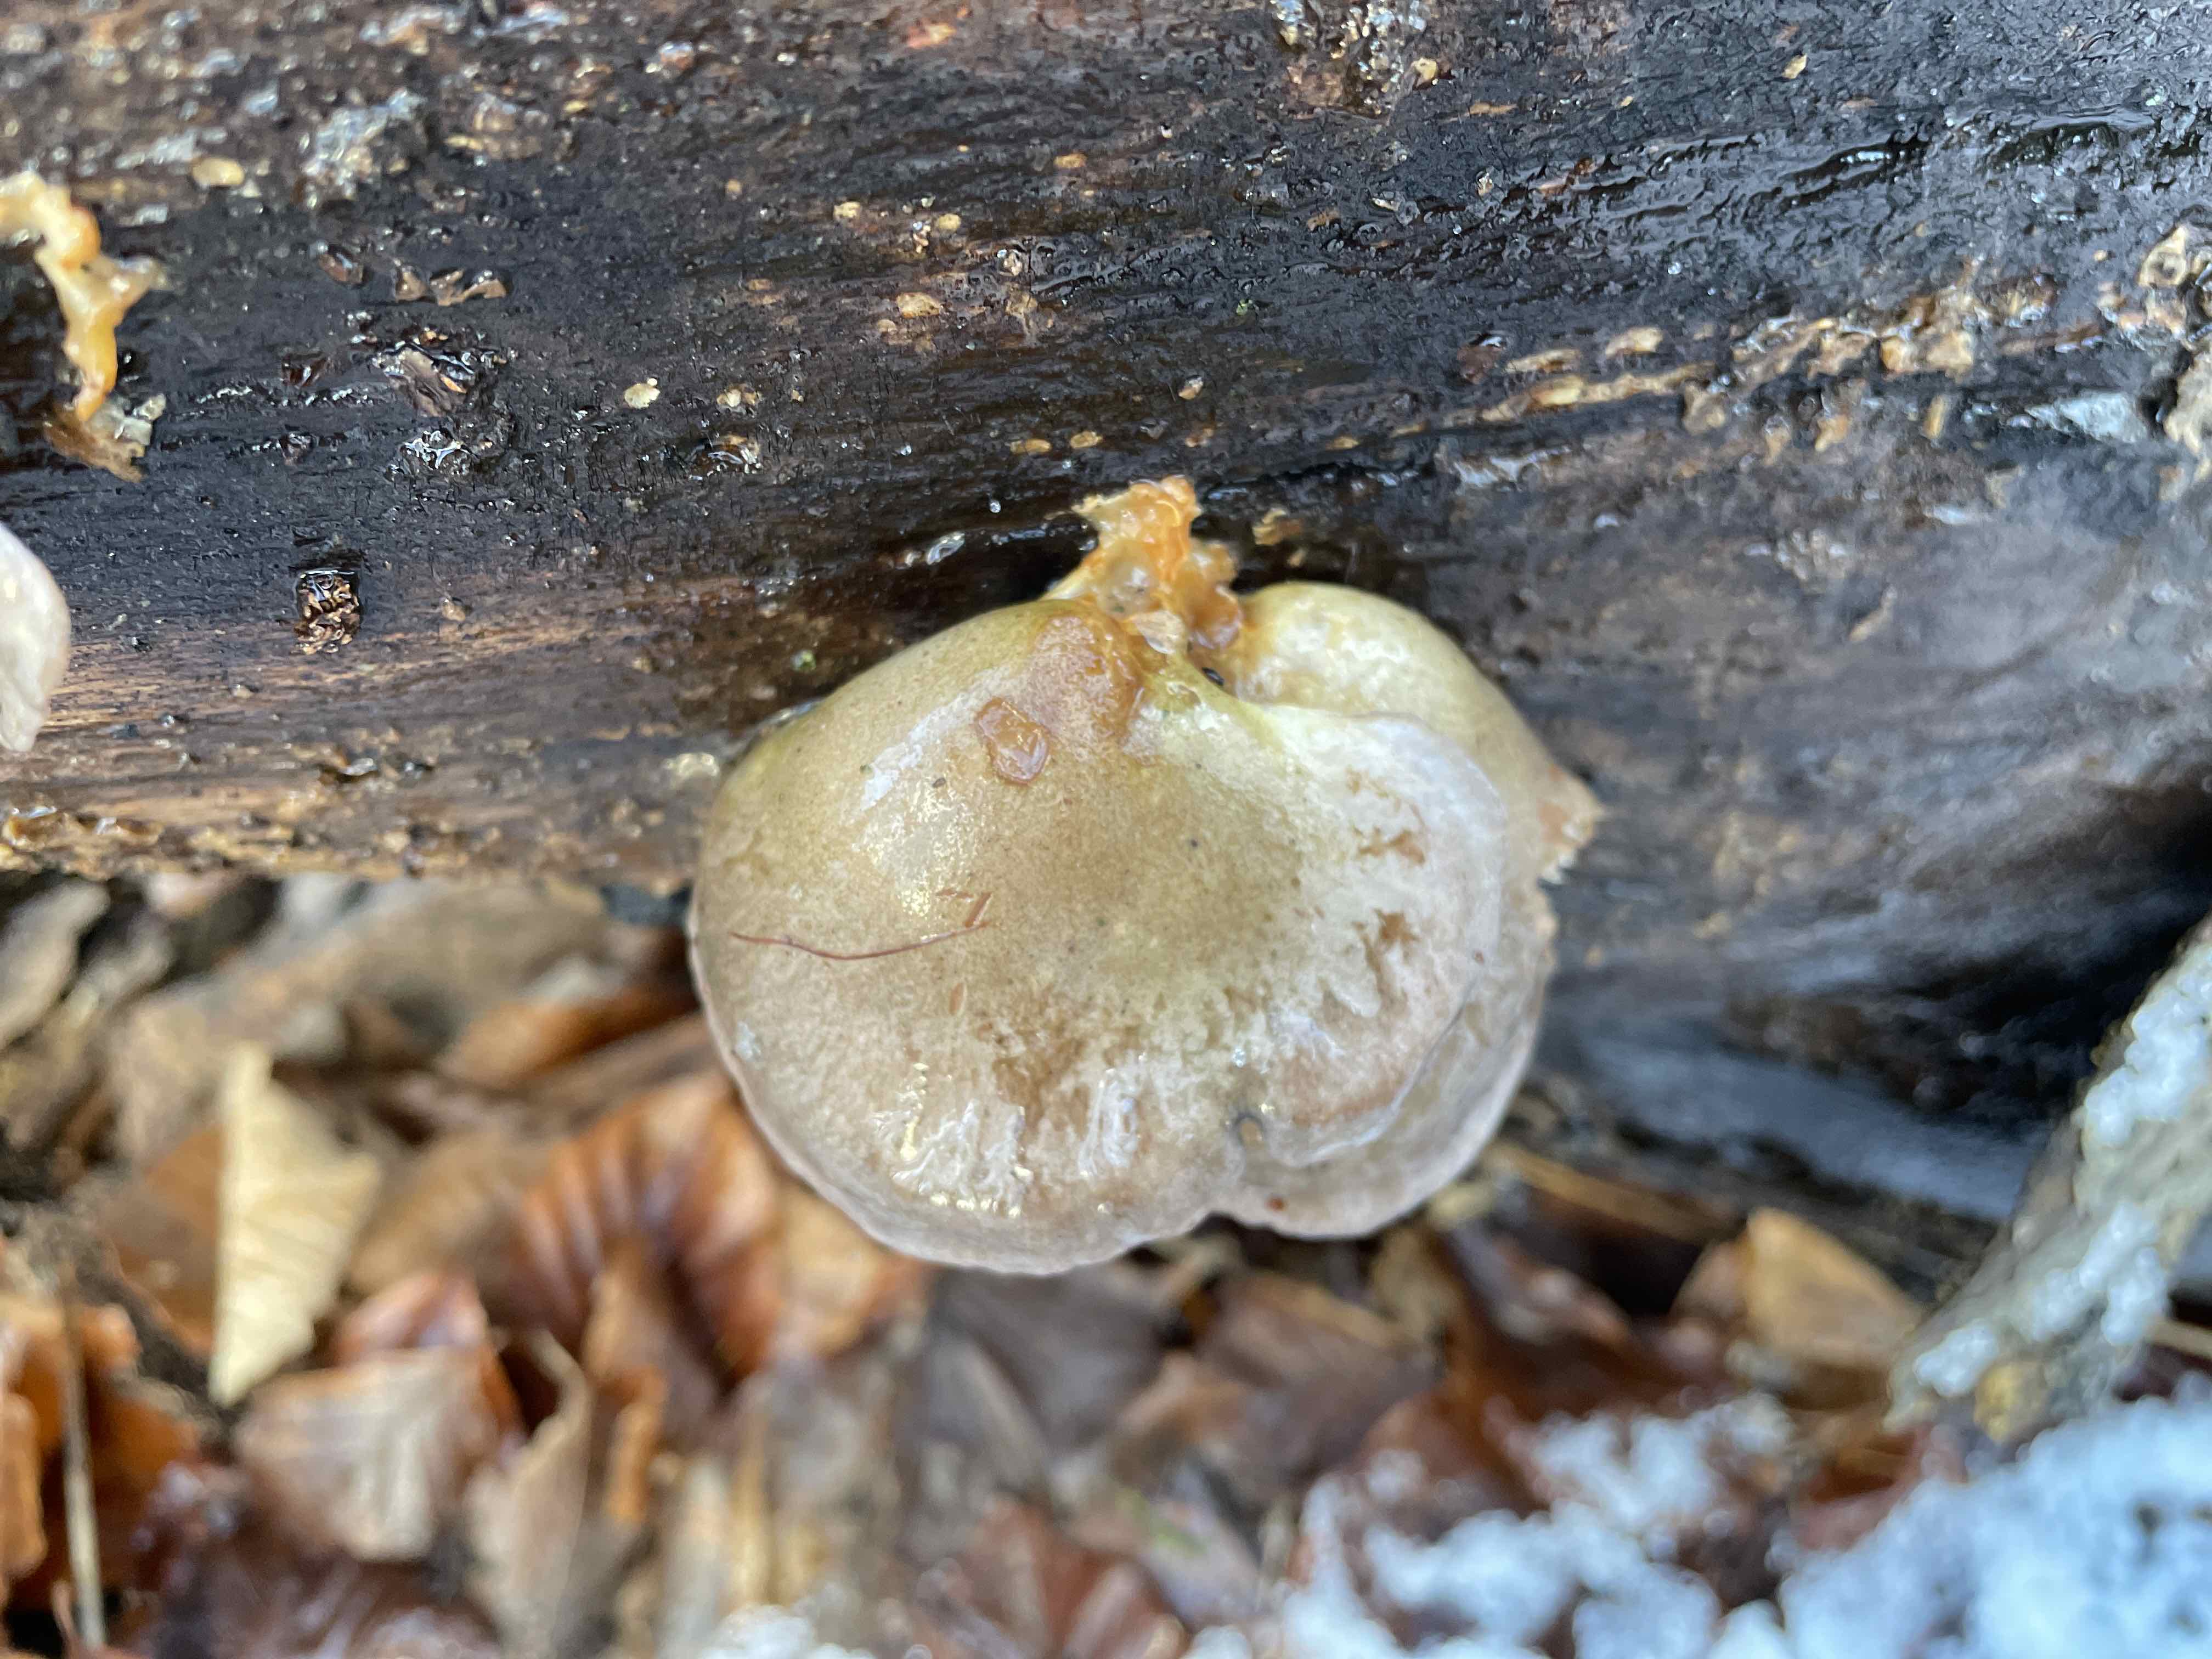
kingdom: Fungi
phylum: Basidiomycota
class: Agaricomycetes
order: Agaricales
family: Sarcomyxaceae
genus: Sarcomyxa
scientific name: Sarcomyxa serotina
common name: gummihat
